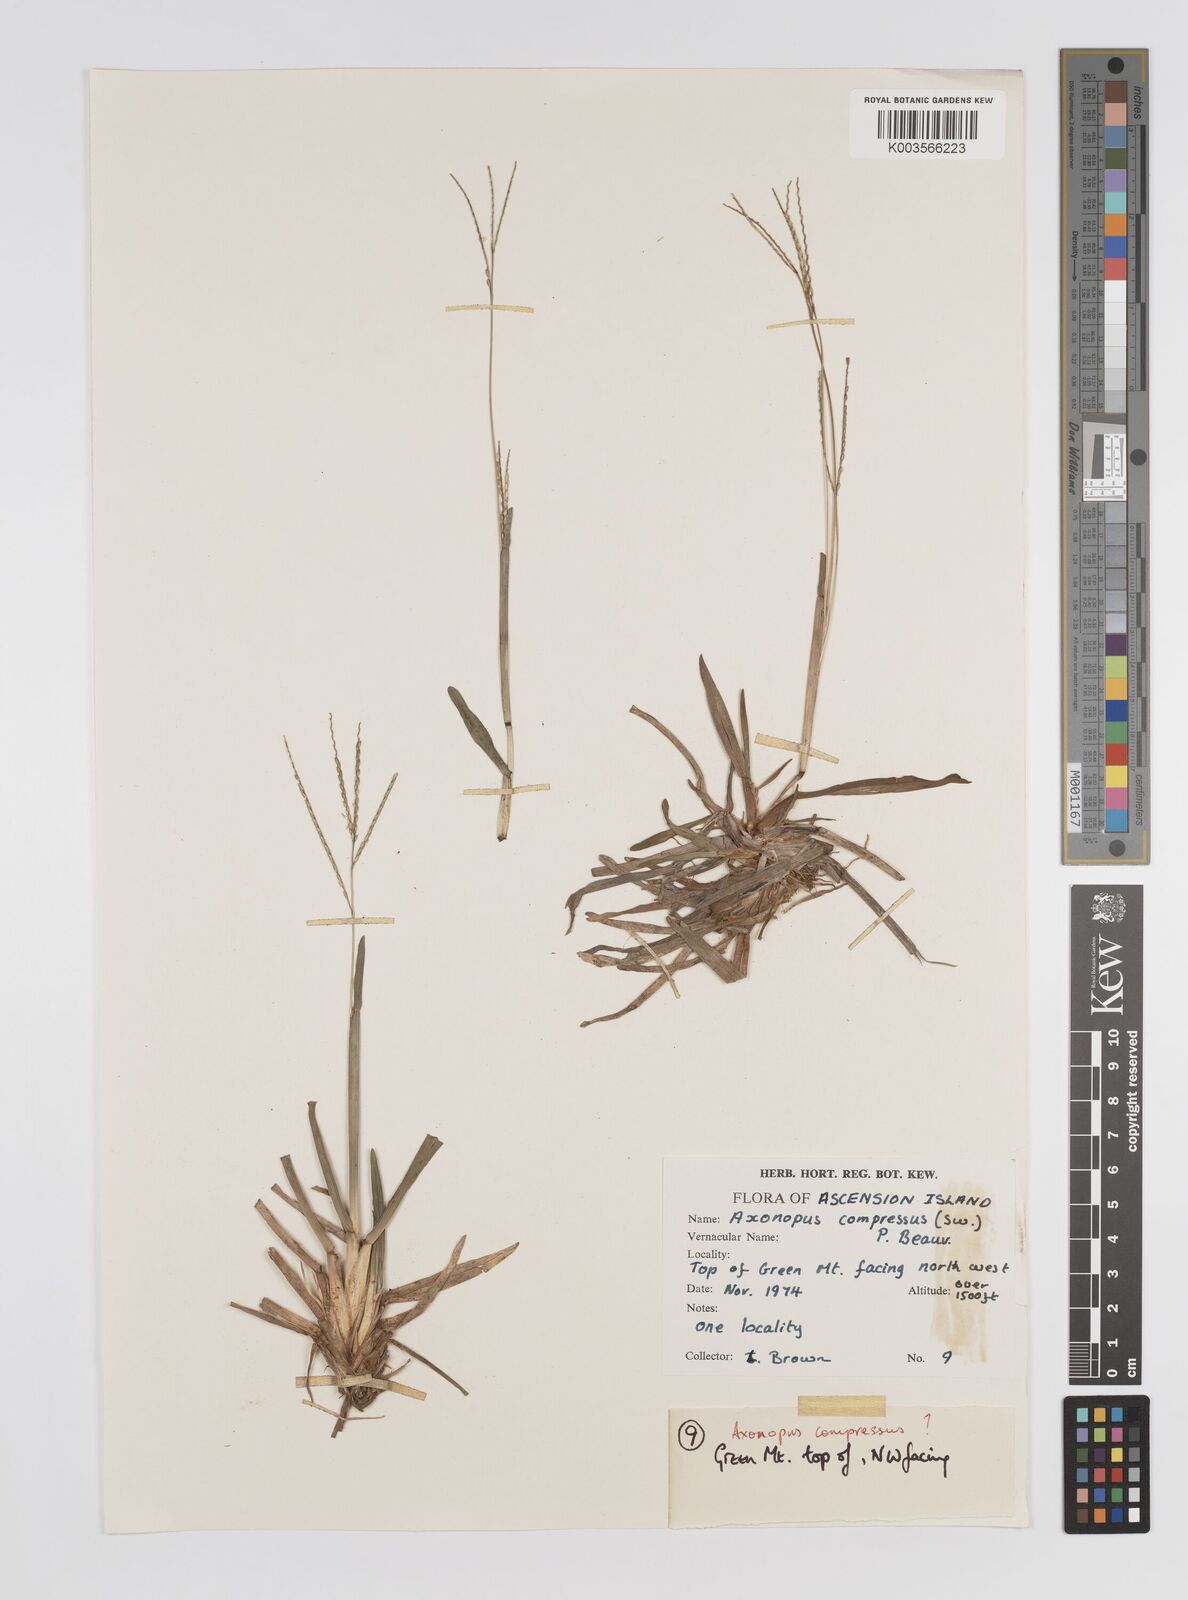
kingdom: Plantae
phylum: Tracheophyta
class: Liliopsida
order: Poales
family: Poaceae
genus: Axonopus
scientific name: Axonopus fissifolius
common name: Common carpetgrass
